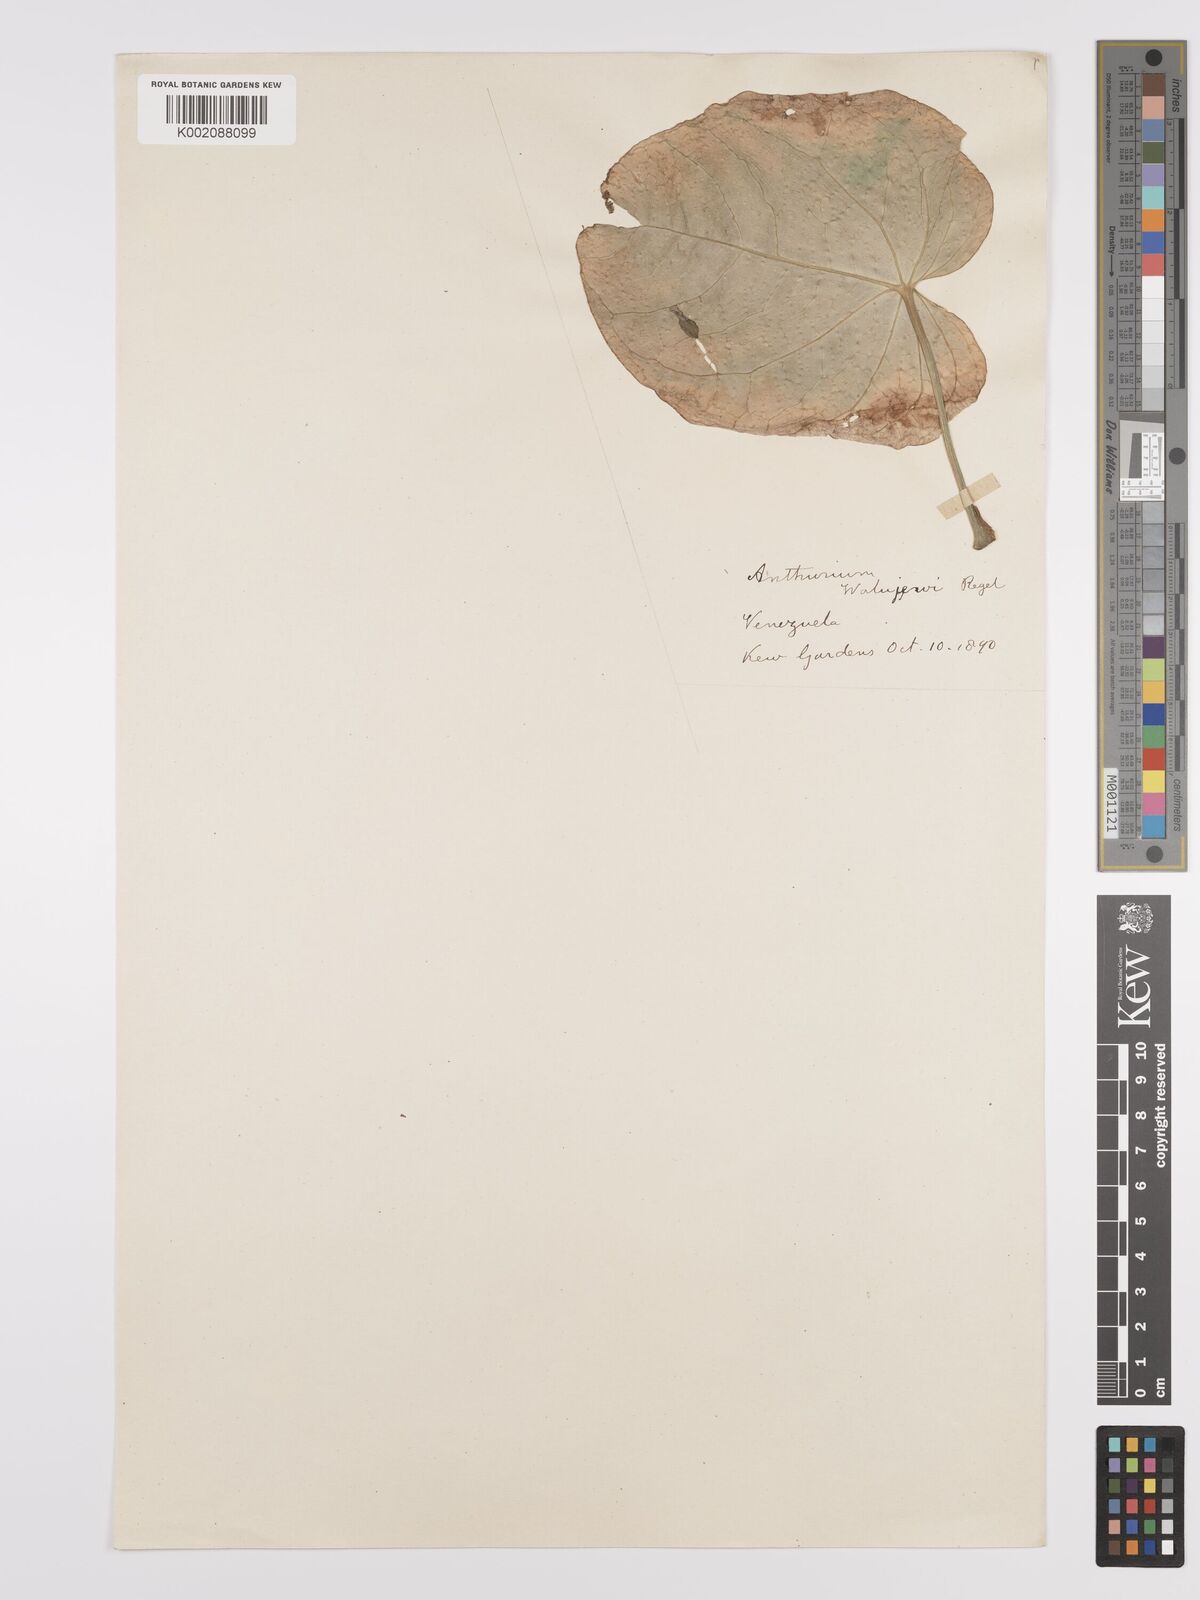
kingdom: Plantae
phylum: Tracheophyta
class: Liliopsida
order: Alismatales
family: Araceae
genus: Anthurium
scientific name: Anthurium walujewii
